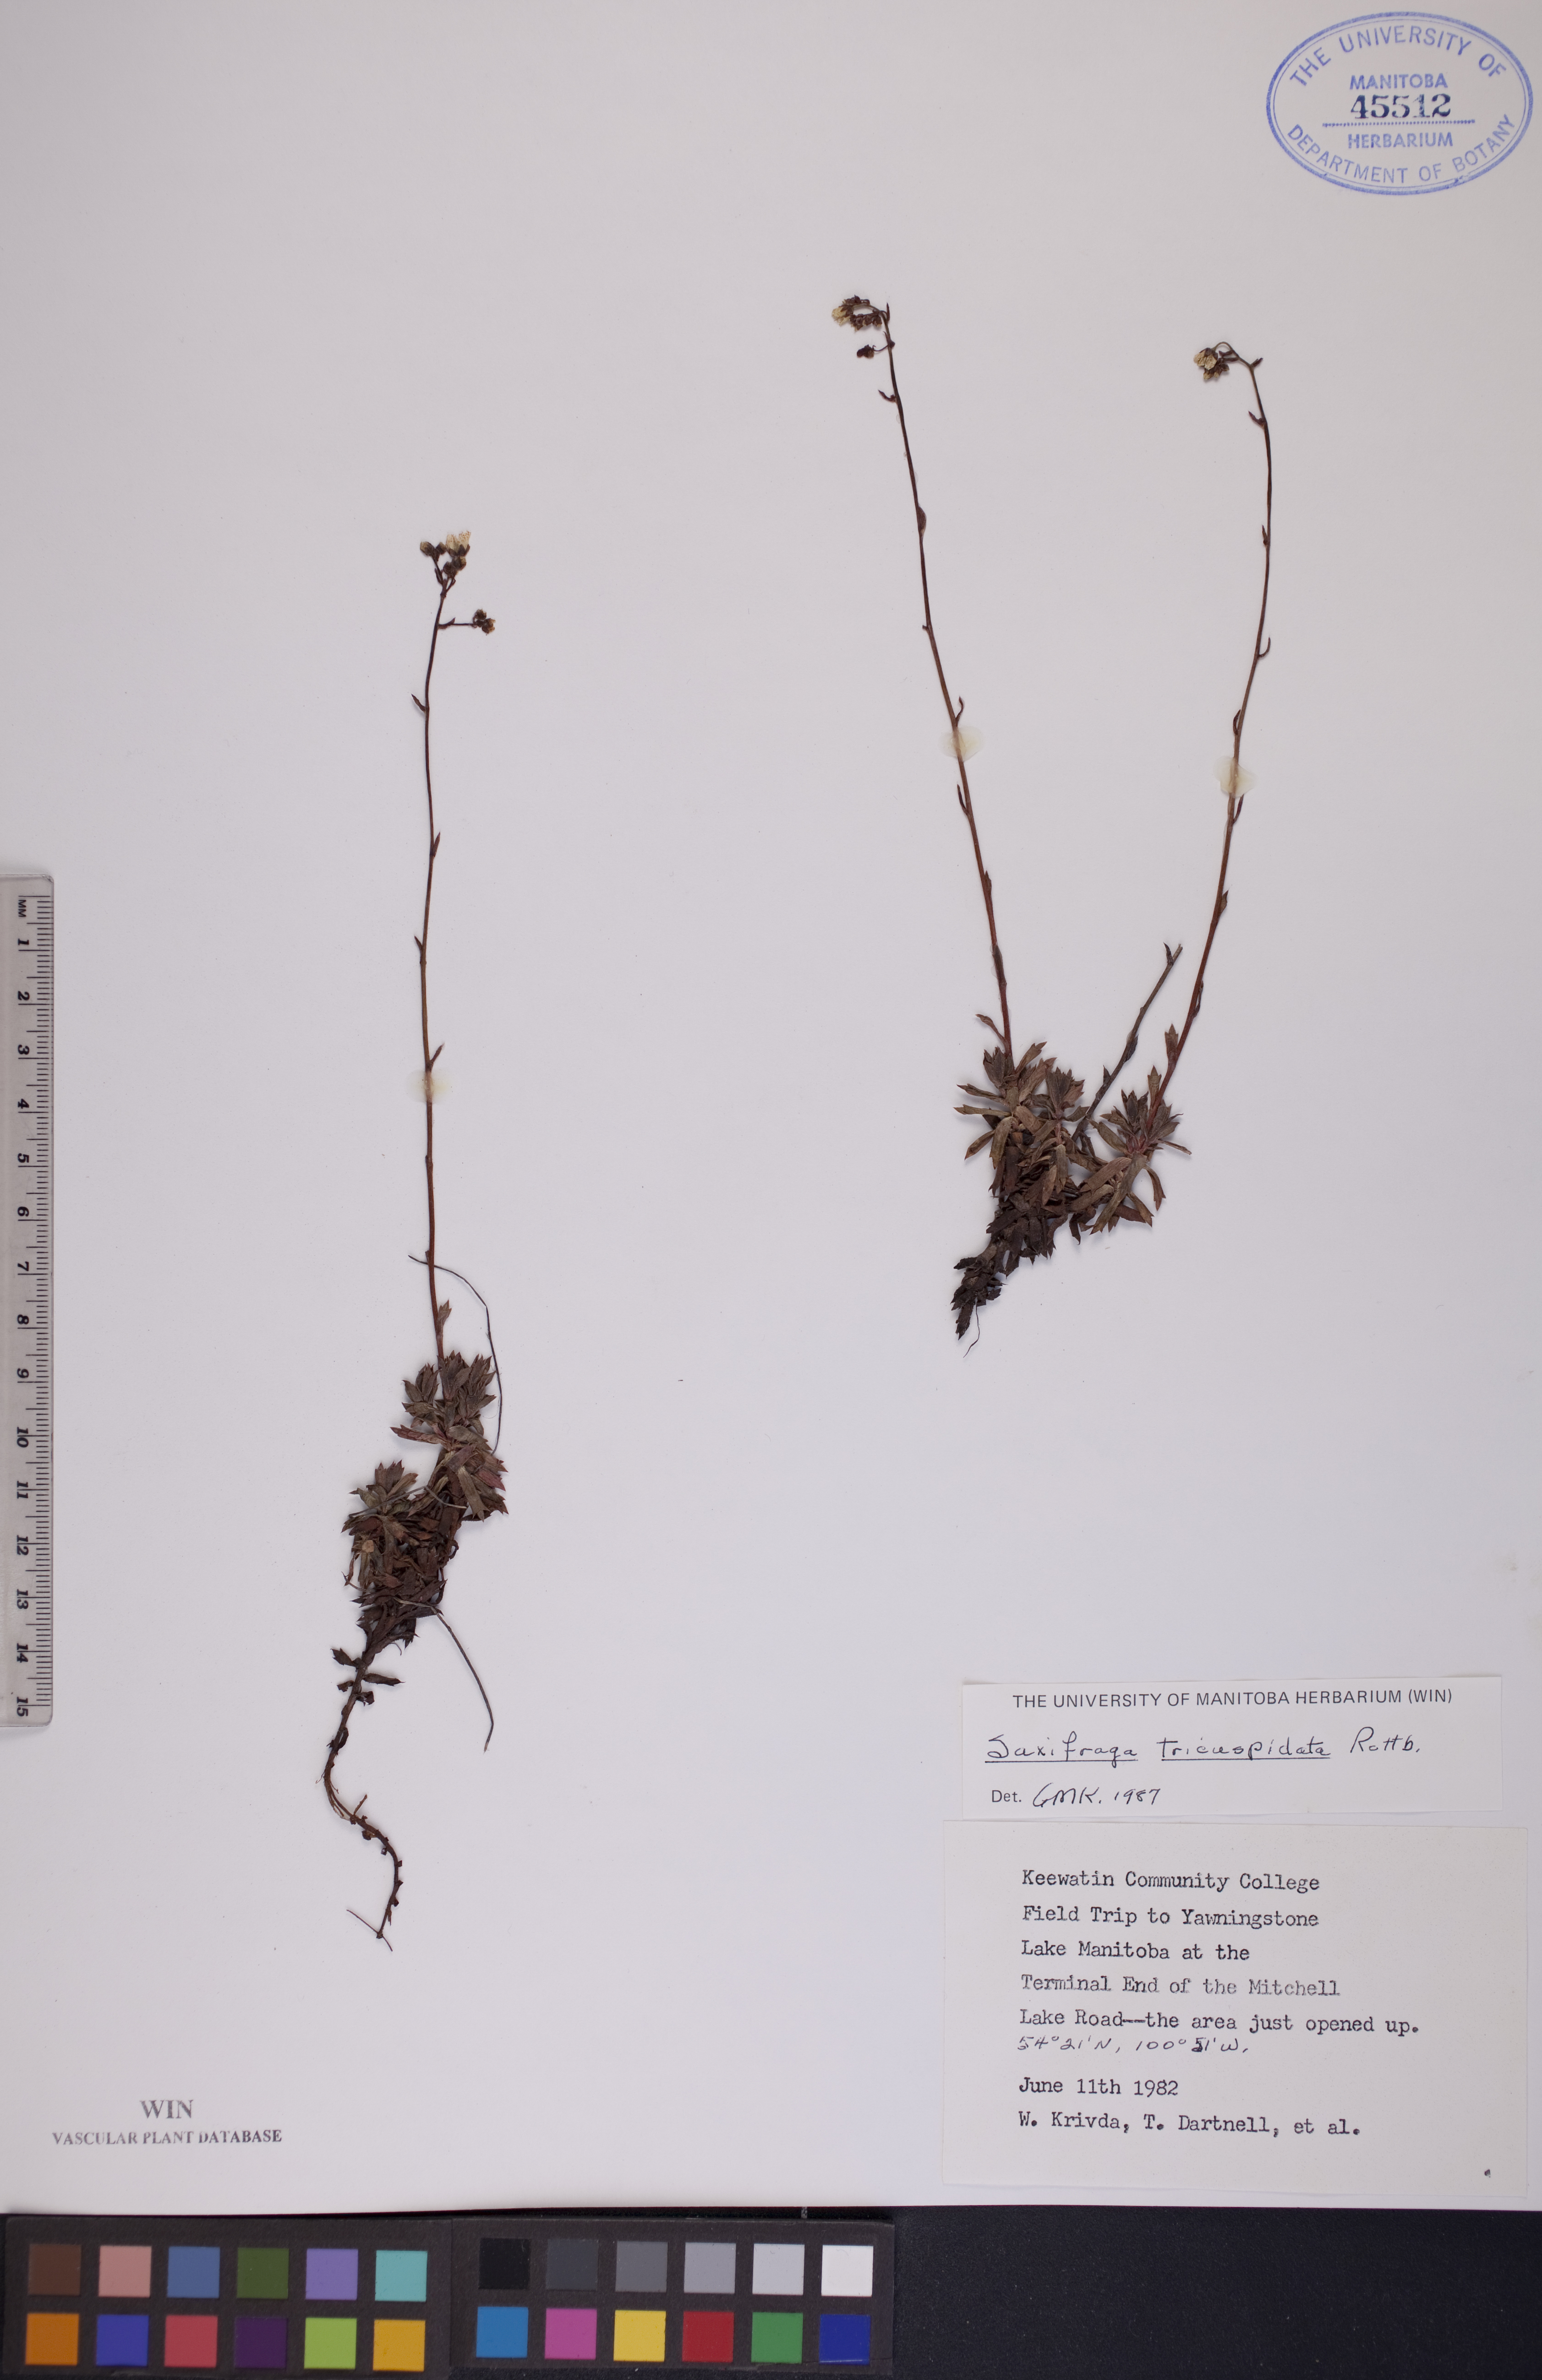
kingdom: Plantae
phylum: Tracheophyta
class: Magnoliopsida
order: Saxifragales
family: Saxifragaceae
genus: Saxifraga
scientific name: Saxifraga tricuspidata
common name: Prickly saxifrage
